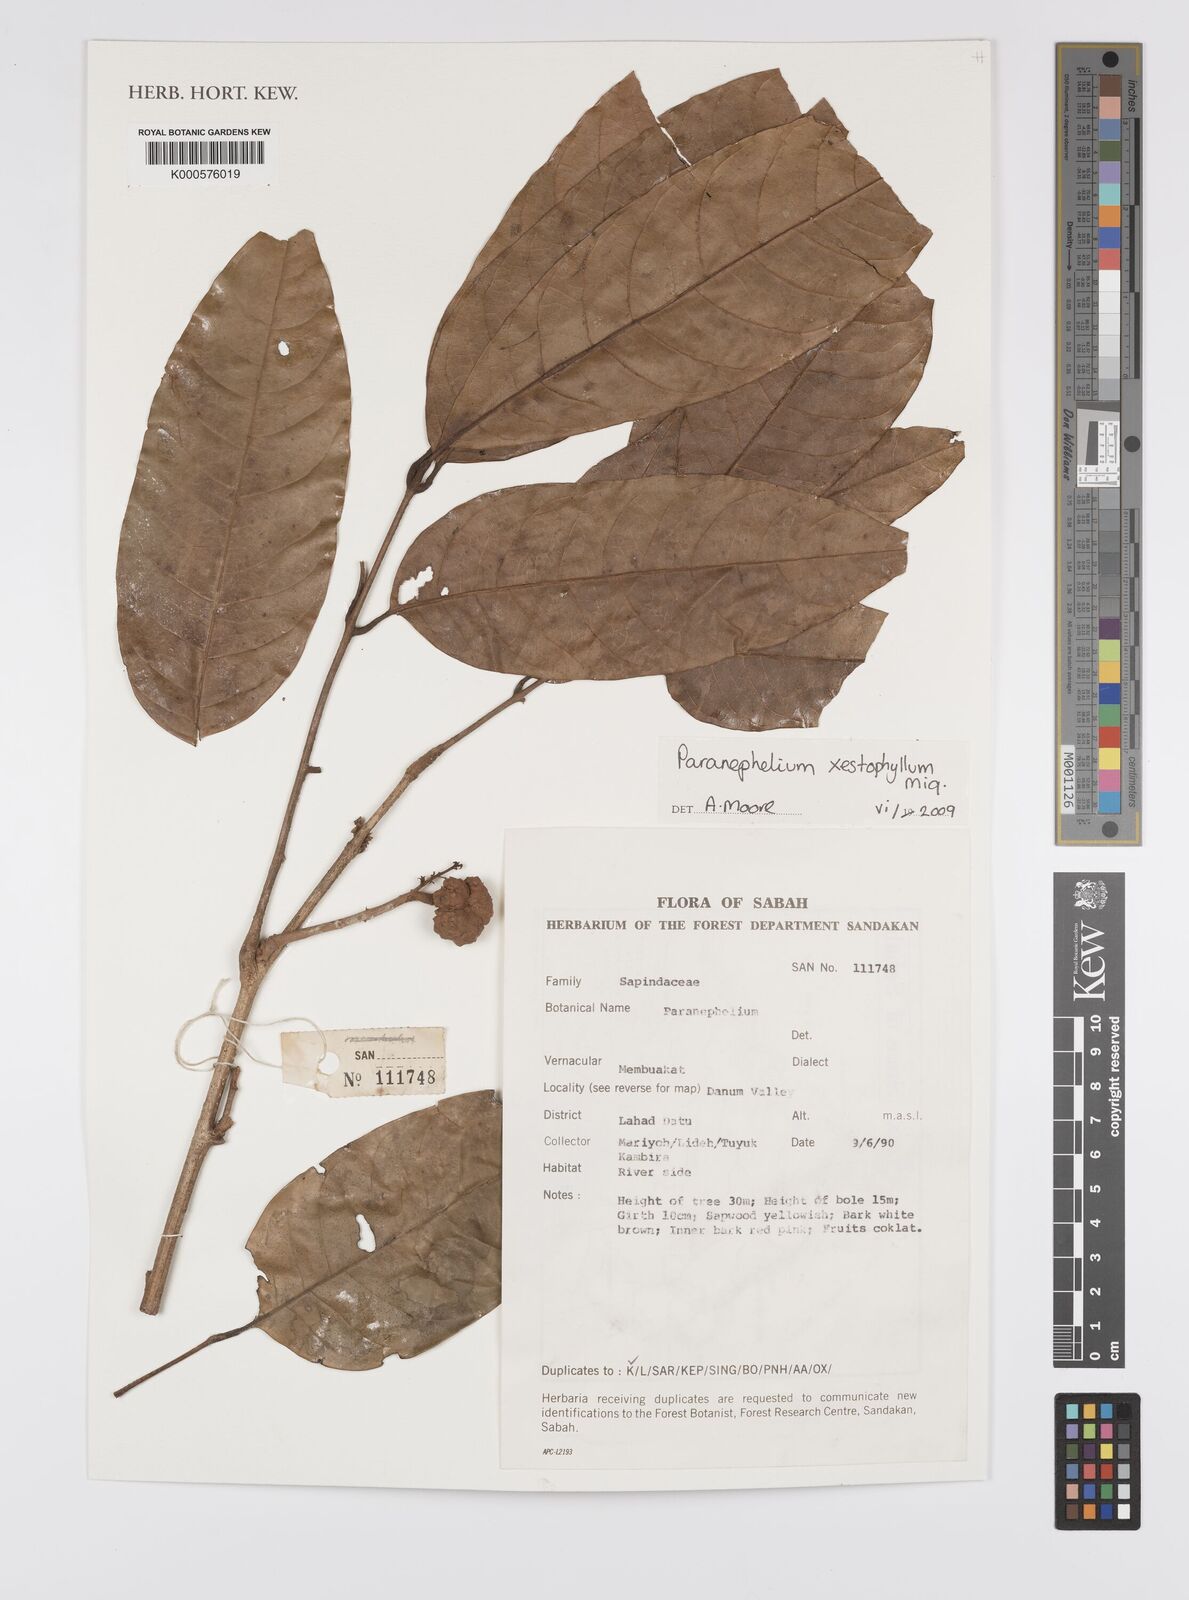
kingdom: Plantae
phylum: Tracheophyta
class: Magnoliopsida
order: Sapindales
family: Sapindaceae
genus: Paranephelium
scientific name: Paranephelium xestophyllum
